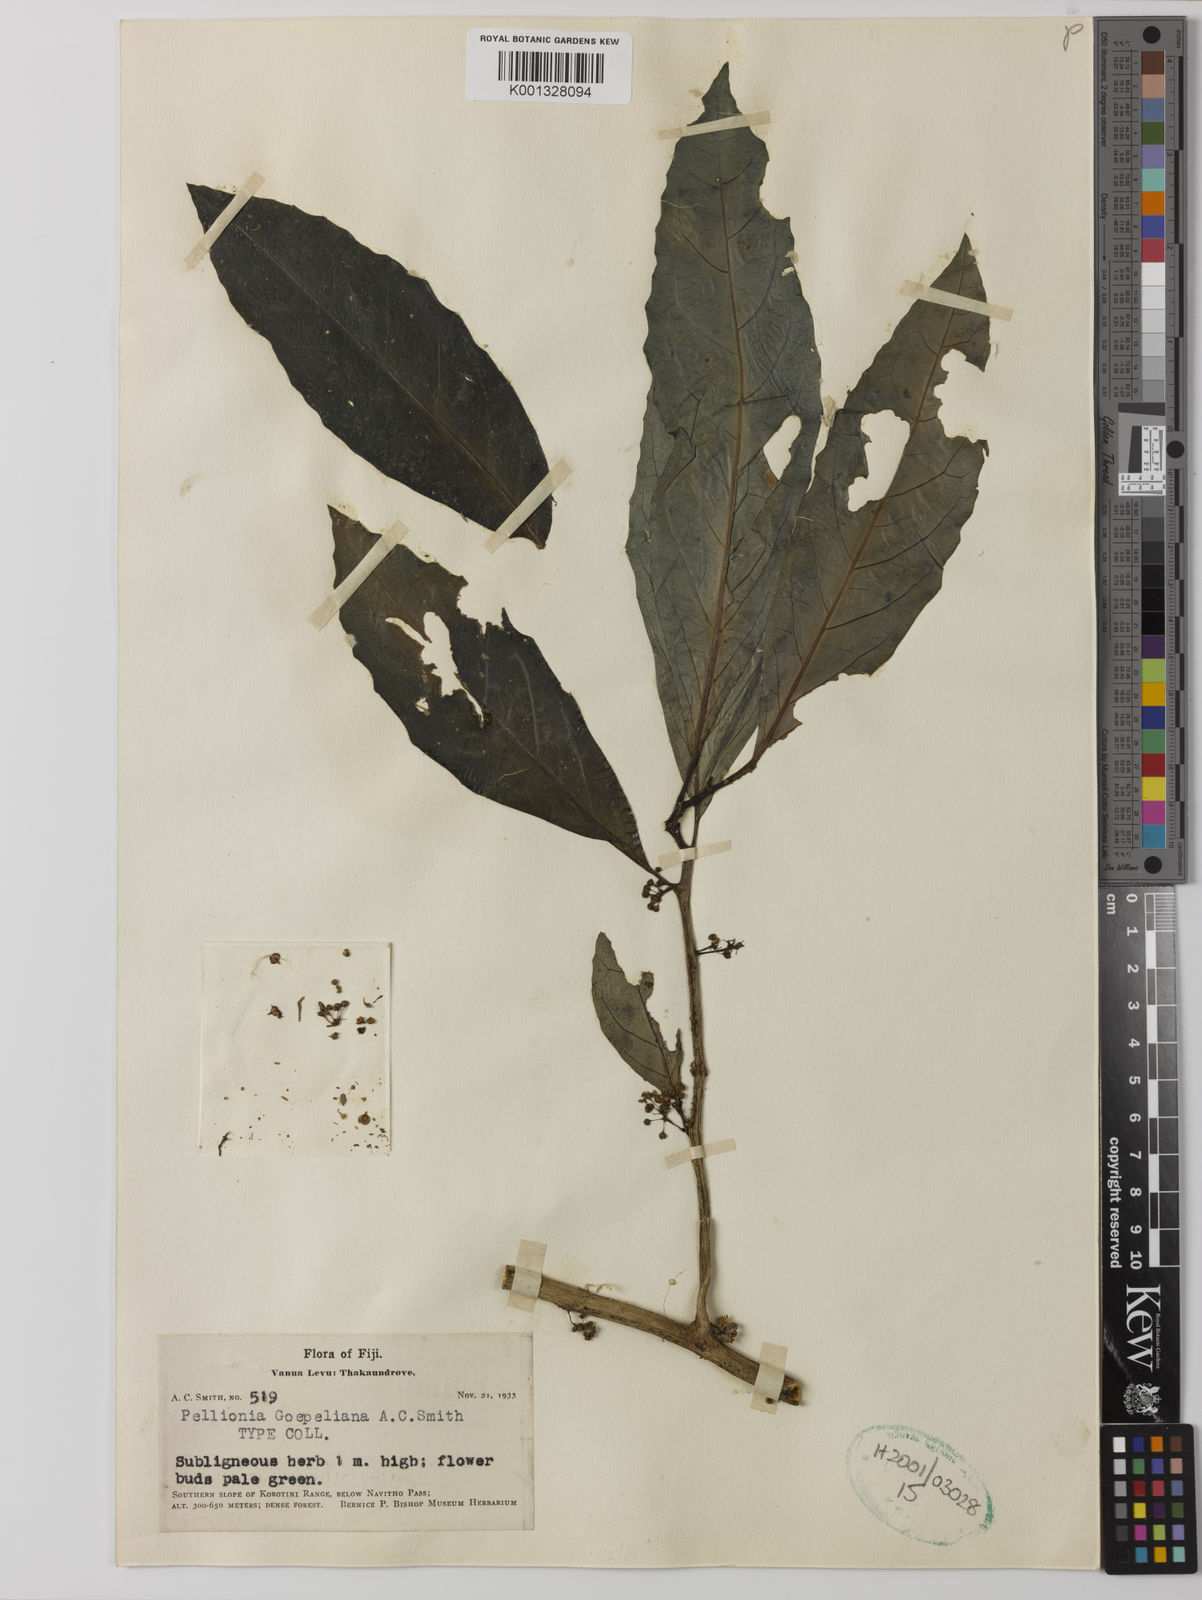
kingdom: Plantae
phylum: Tracheophyta
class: Magnoliopsida
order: Rosales
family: Urticaceae
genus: Procris
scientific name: Procris goepeliana
